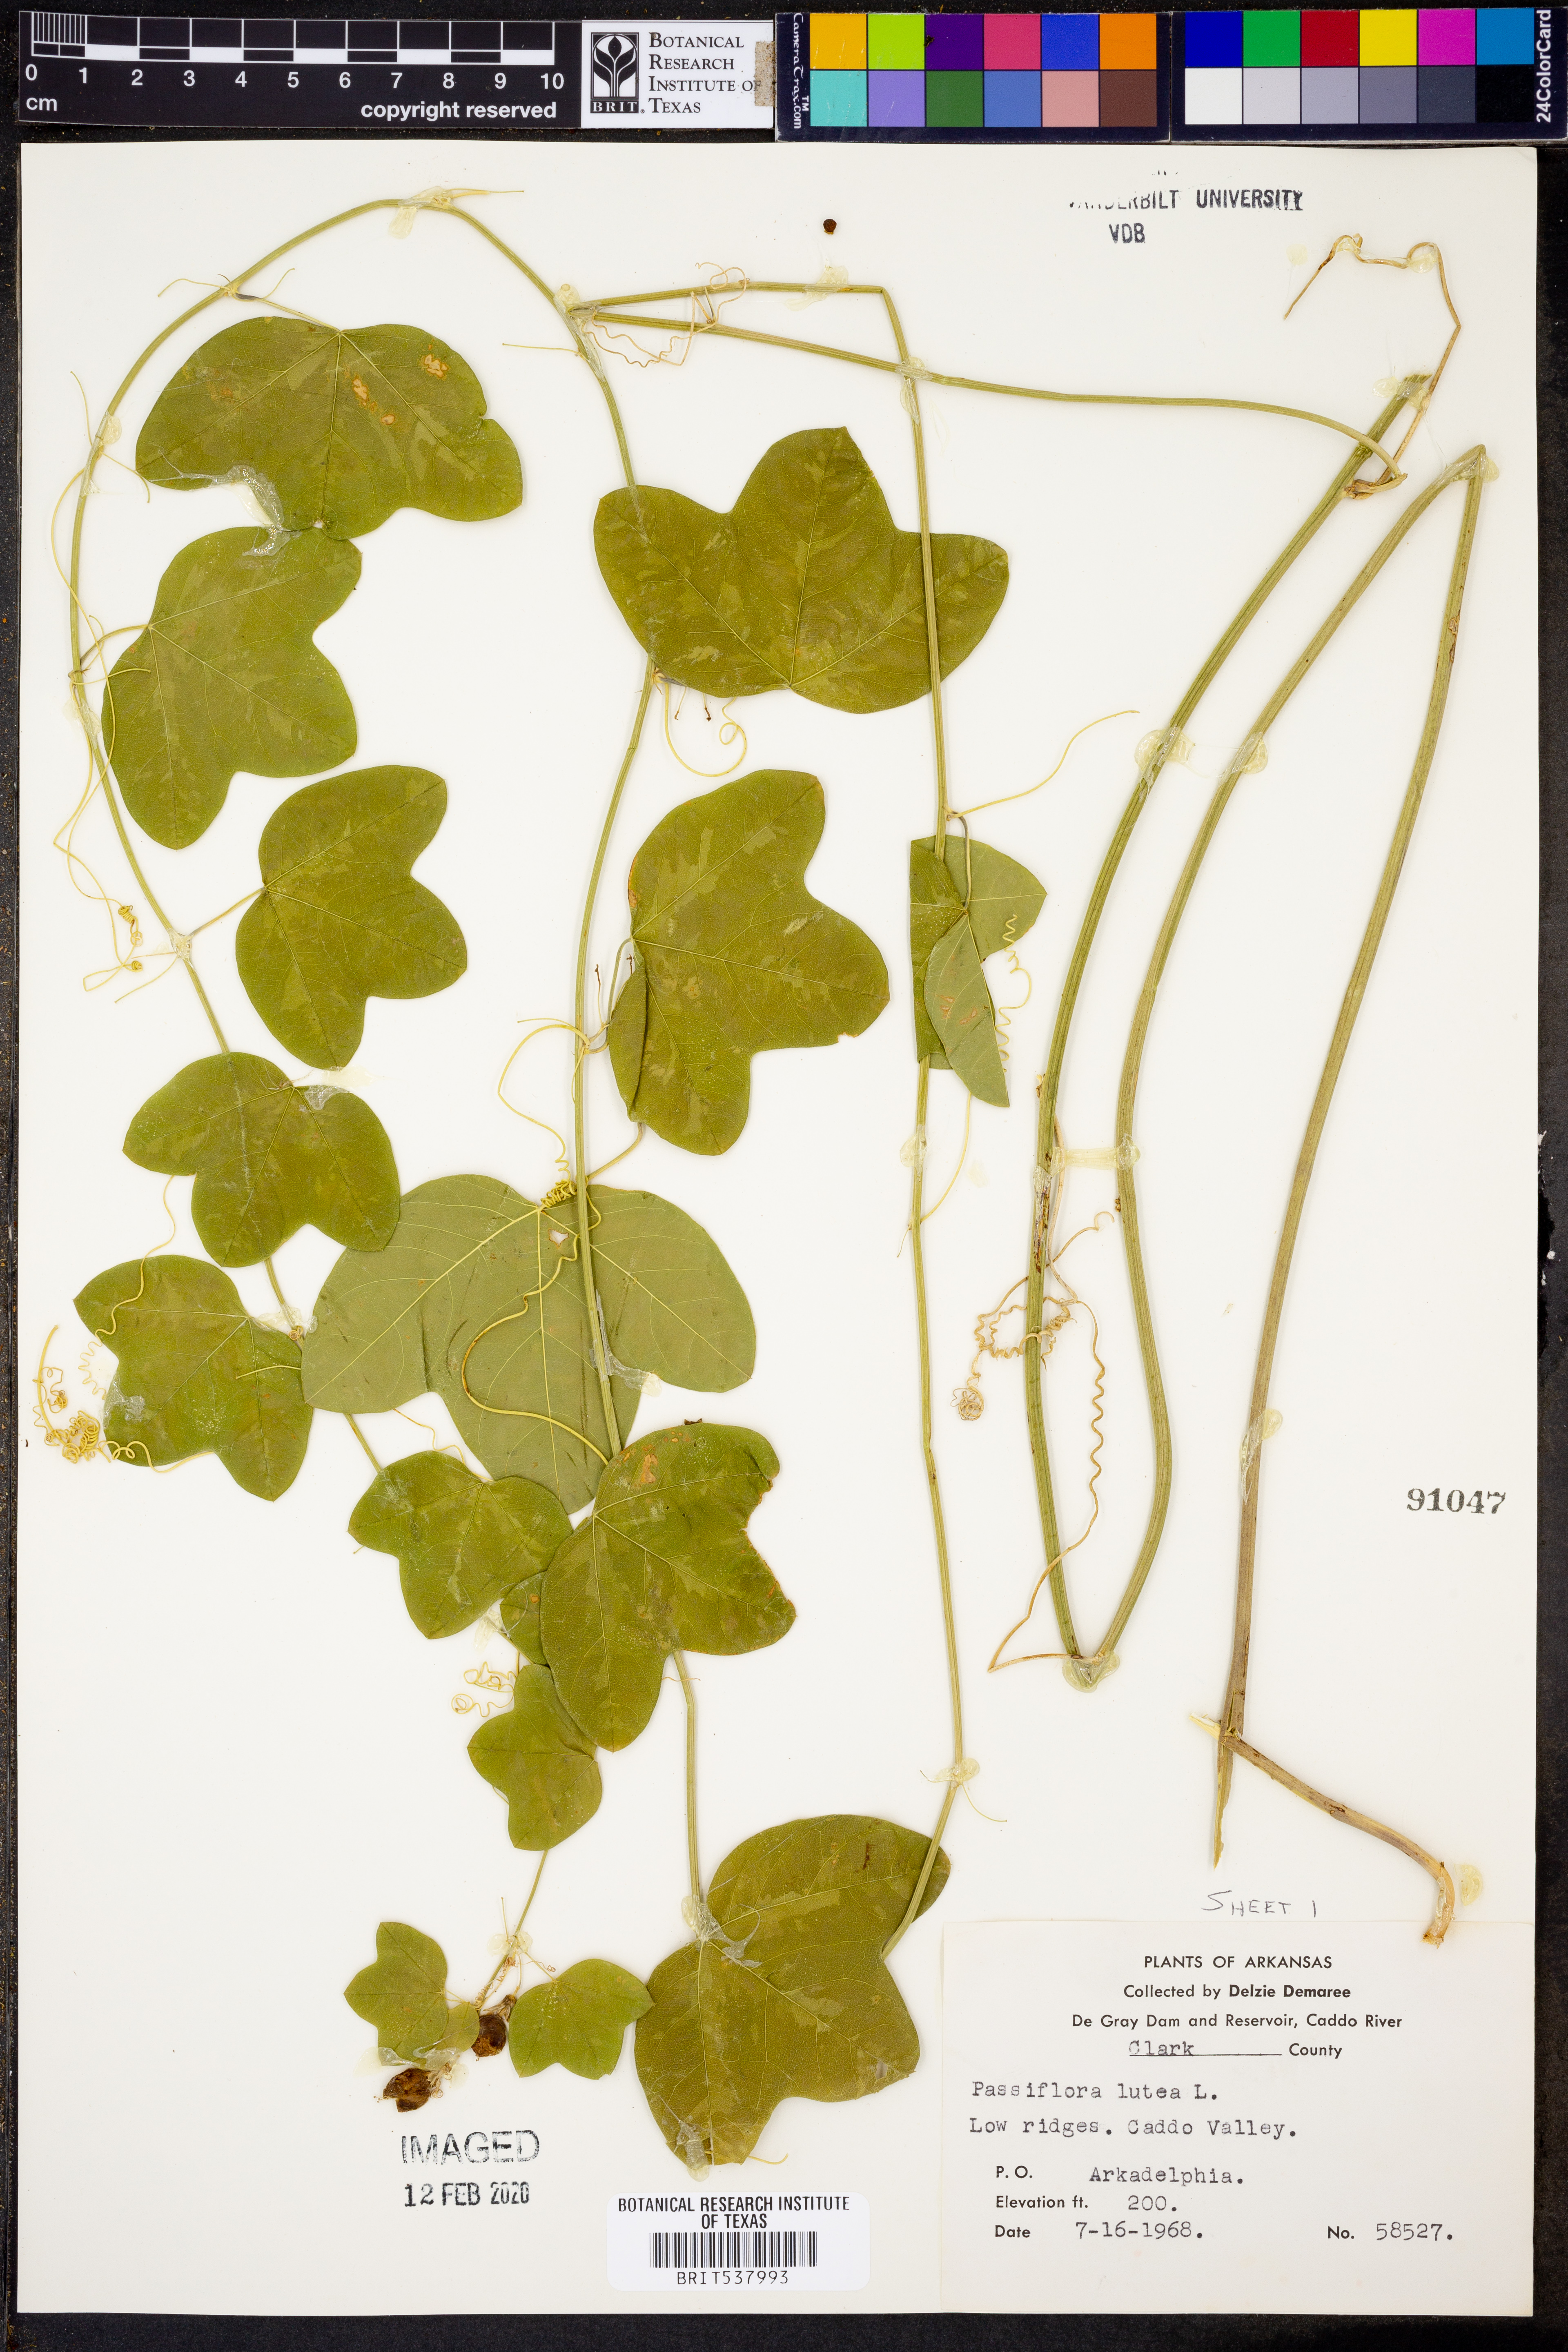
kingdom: Plantae
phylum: Tracheophyta
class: Magnoliopsida
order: Malpighiales
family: Passifloraceae
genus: Passiflora
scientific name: Passiflora lutea
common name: Yellow passionflower
